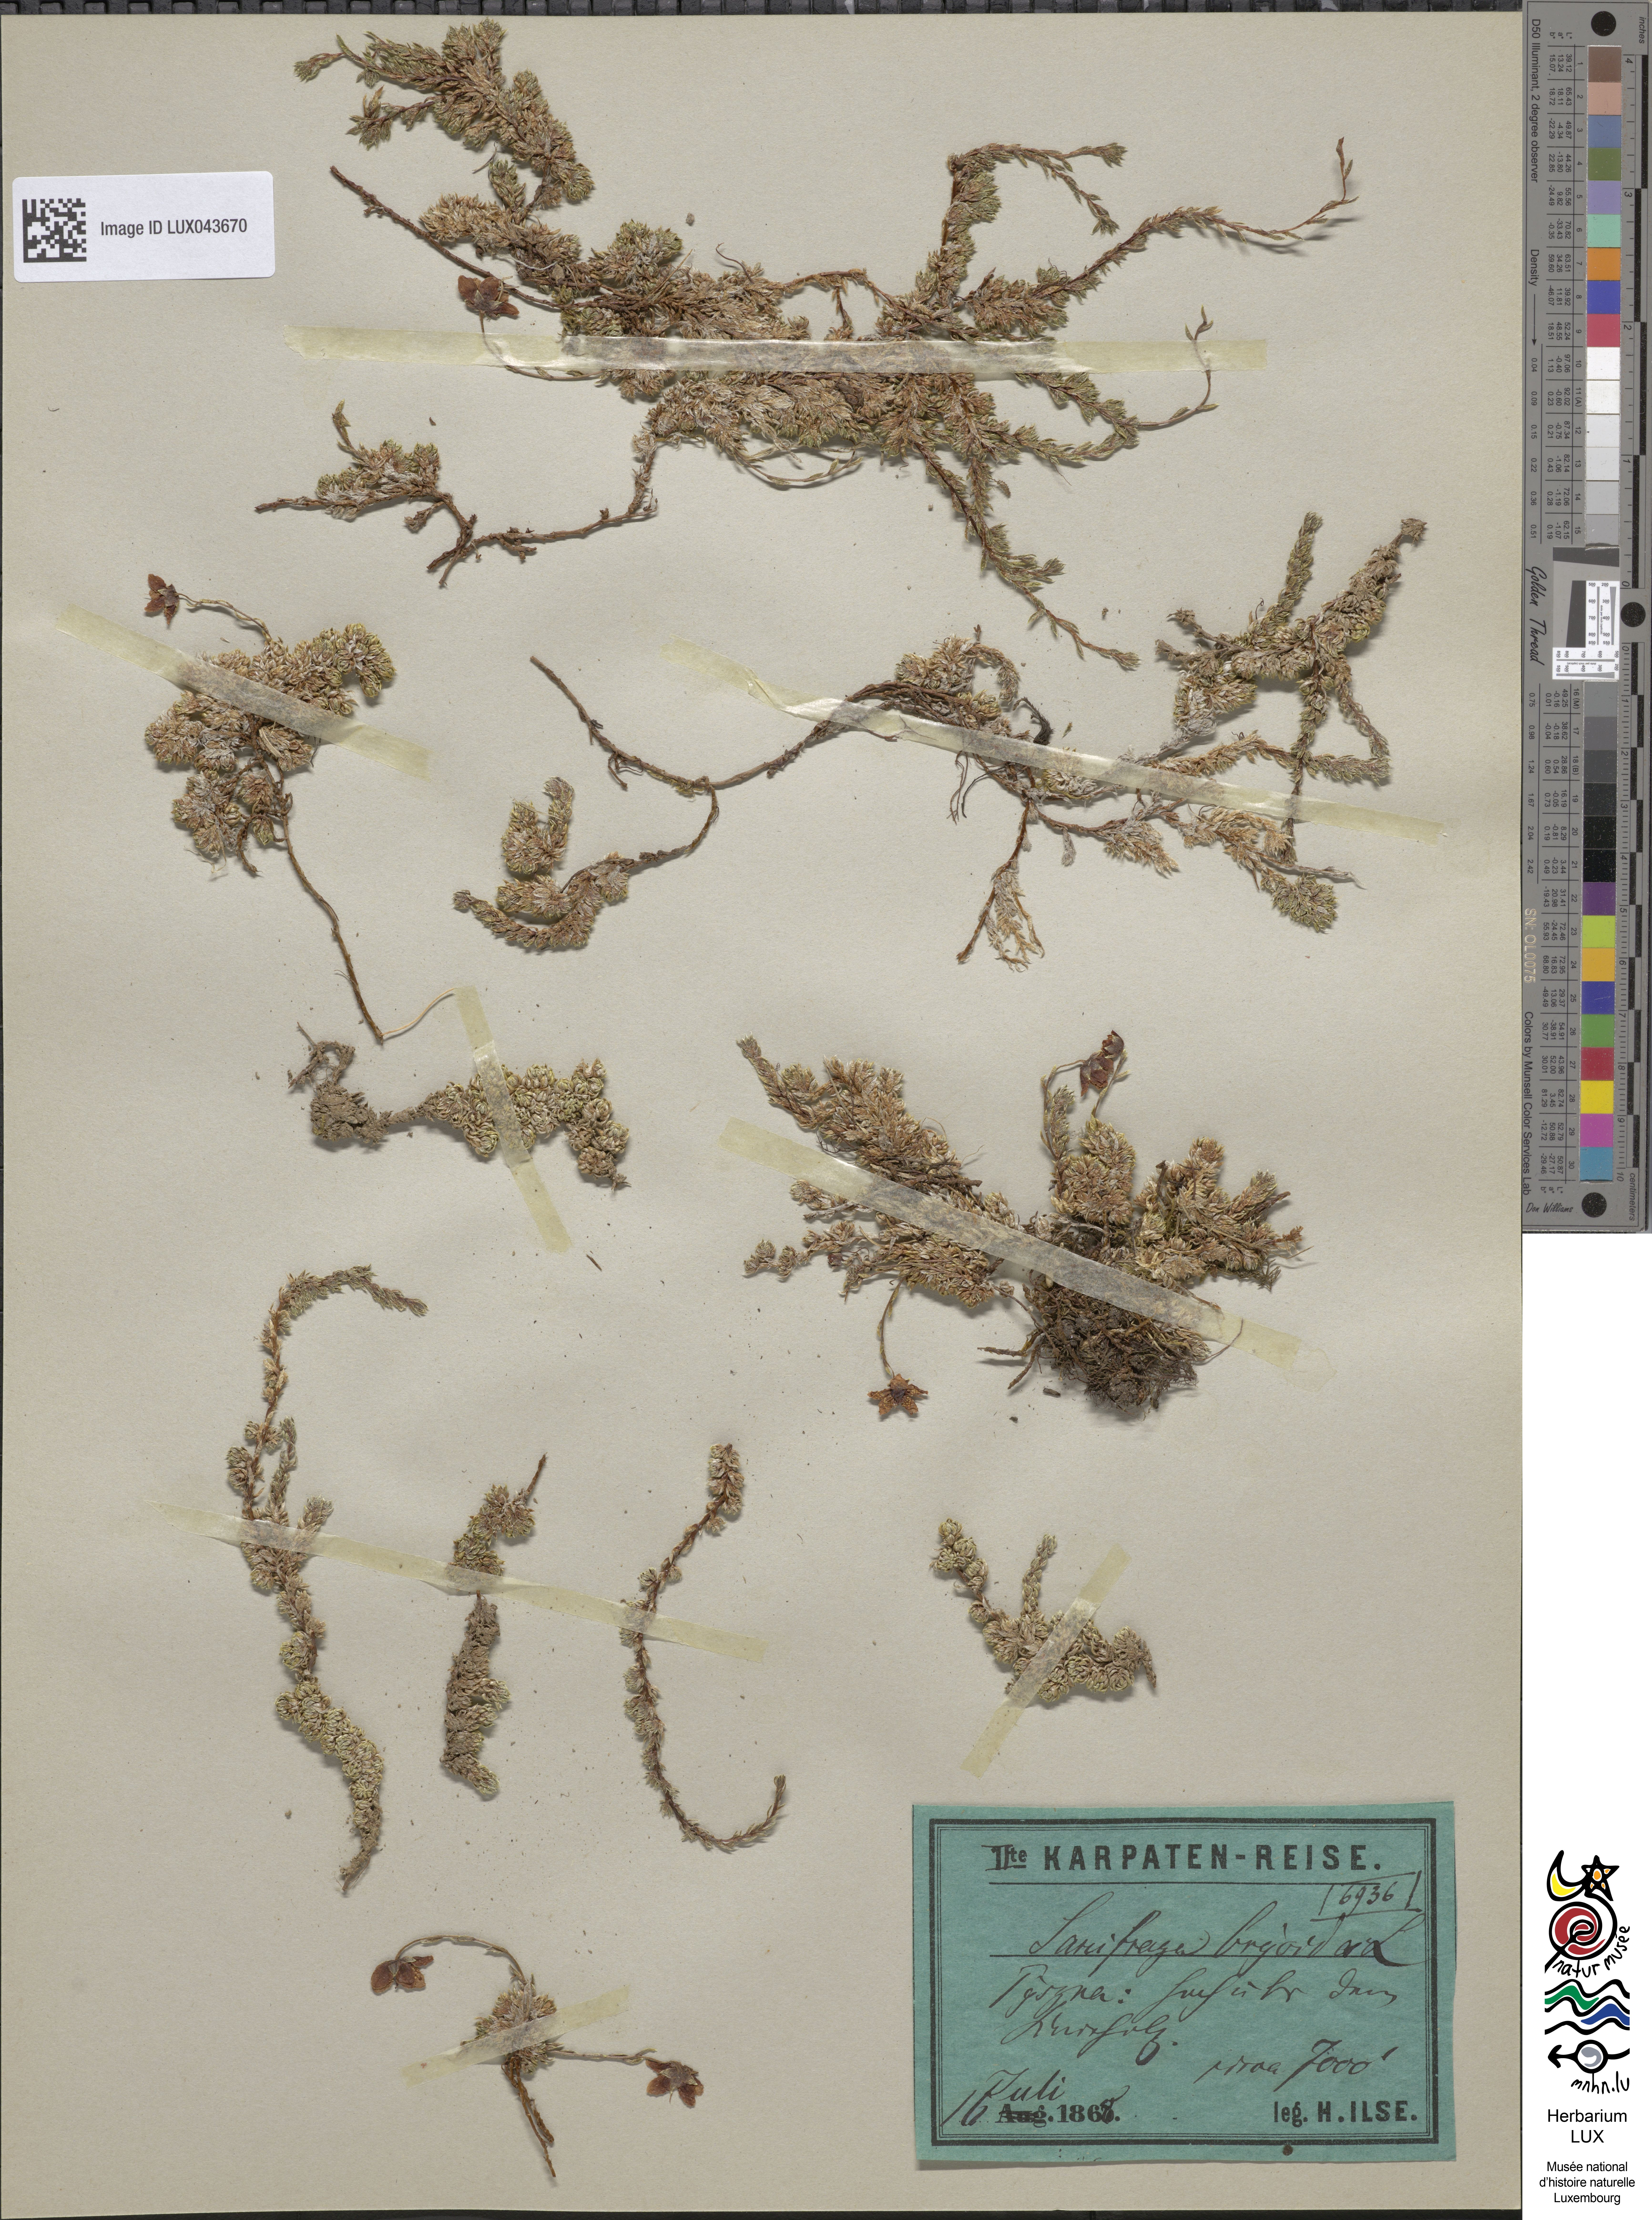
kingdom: Plantae
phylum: Tracheophyta
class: Magnoliopsida
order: Saxifragales
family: Saxifragaceae
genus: Saxifraga
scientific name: Saxifraga bryoides
